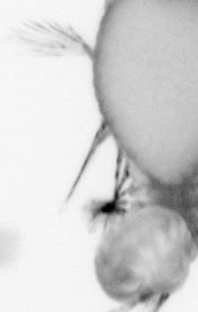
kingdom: Animalia
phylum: Annelida
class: Polychaeta
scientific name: Polychaeta
